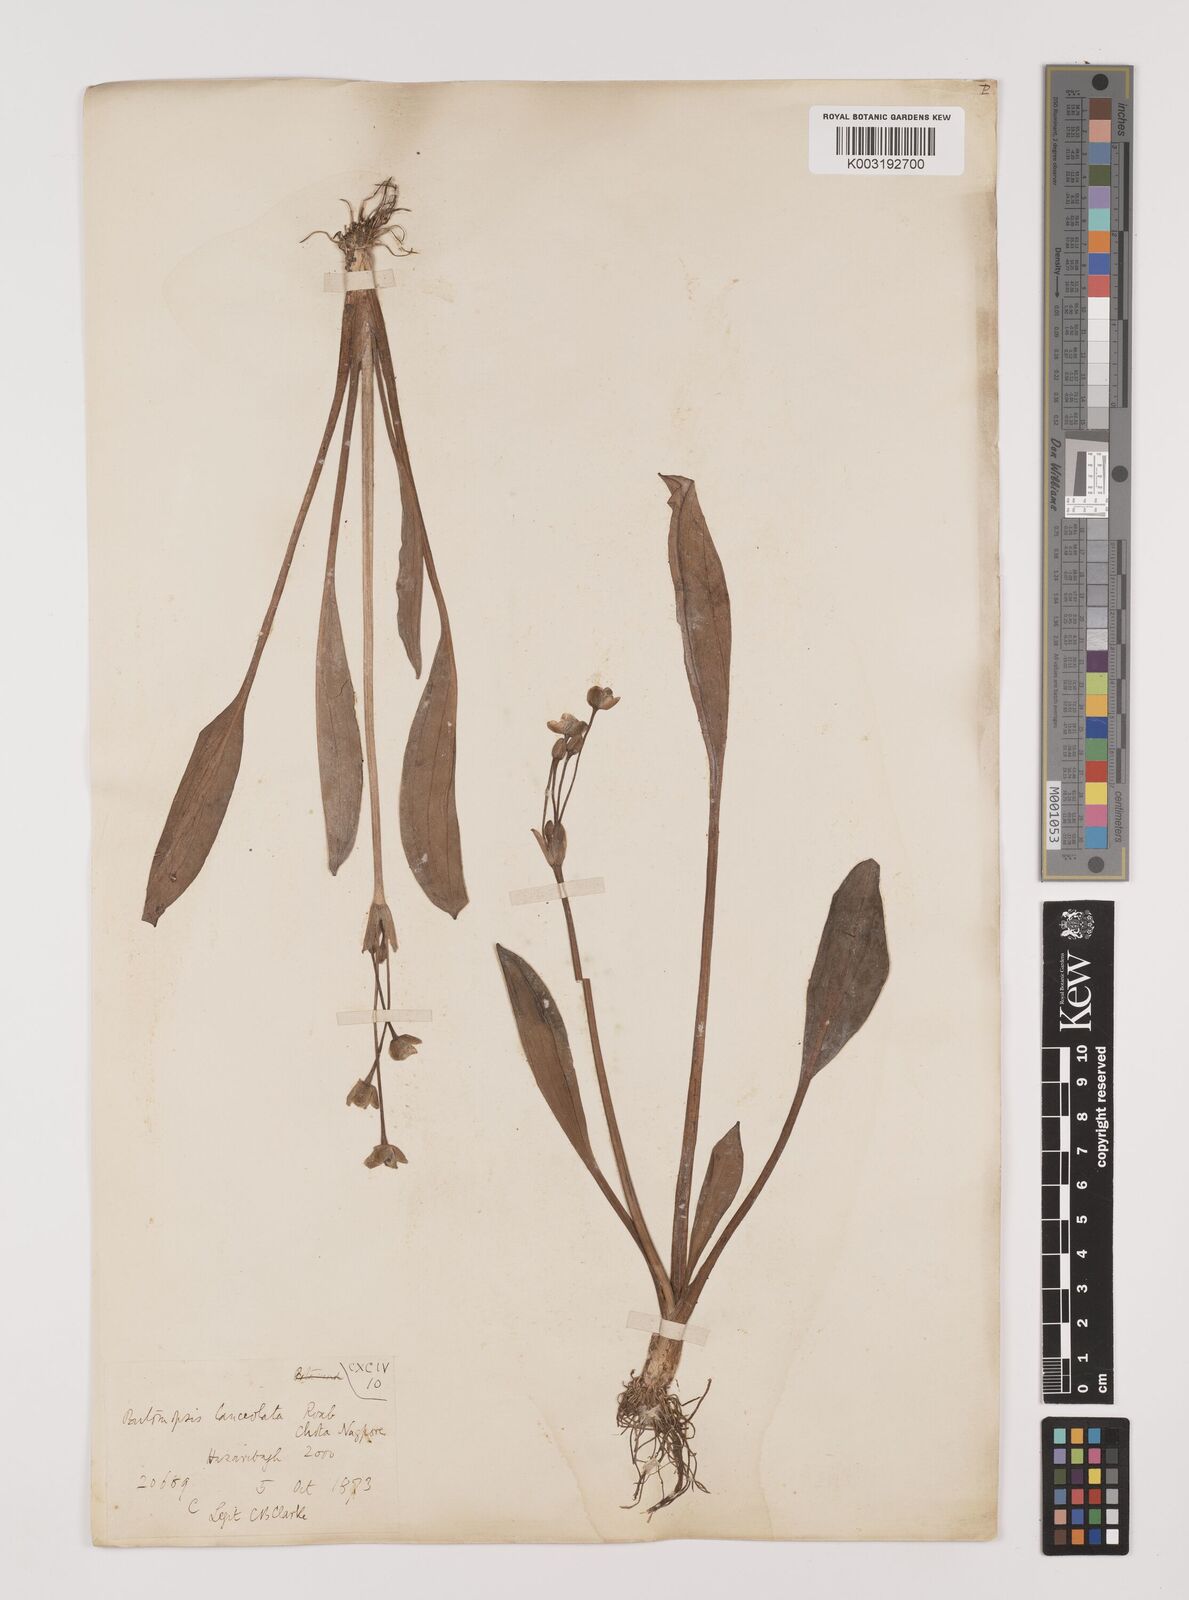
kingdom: Plantae
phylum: Tracheophyta
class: Liliopsida
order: Alismatales
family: Alismataceae
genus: Butomopsis
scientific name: Butomopsis latifolia
